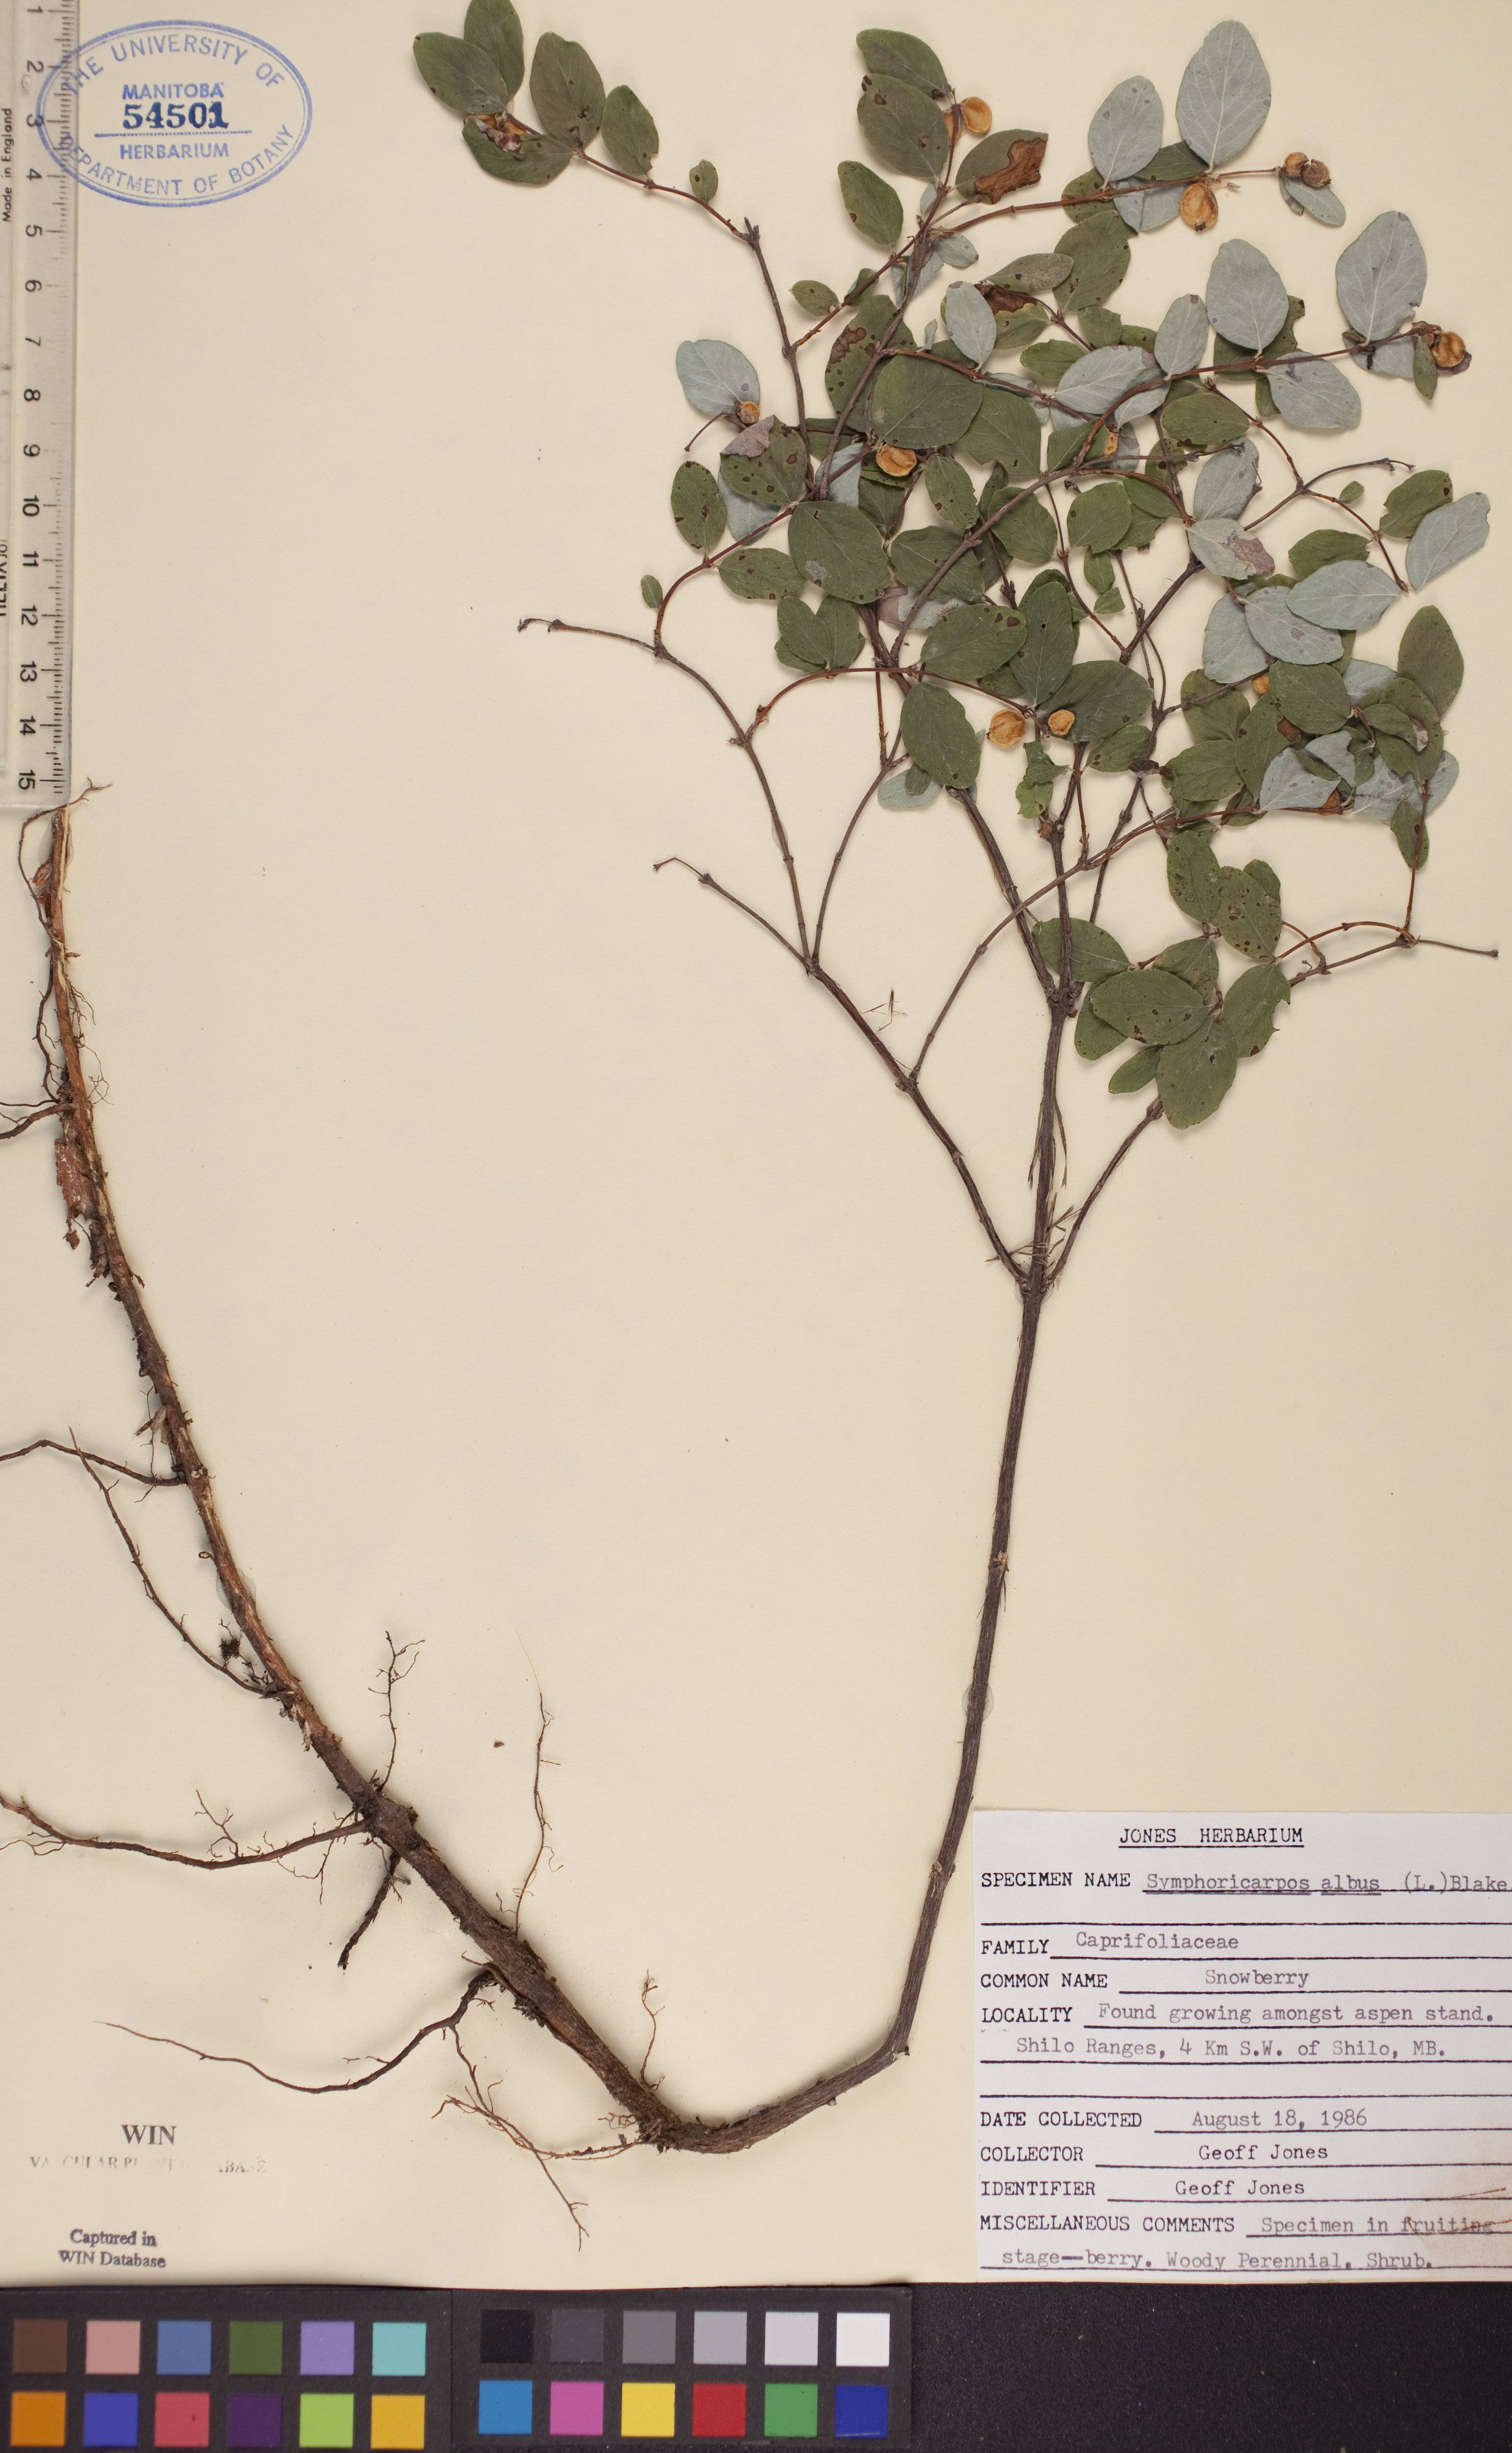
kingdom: Plantae
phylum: Tracheophyta
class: Magnoliopsida
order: Dipsacales
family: Caprifoliaceae
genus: Symphoricarpos
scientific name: Symphoricarpos albus
